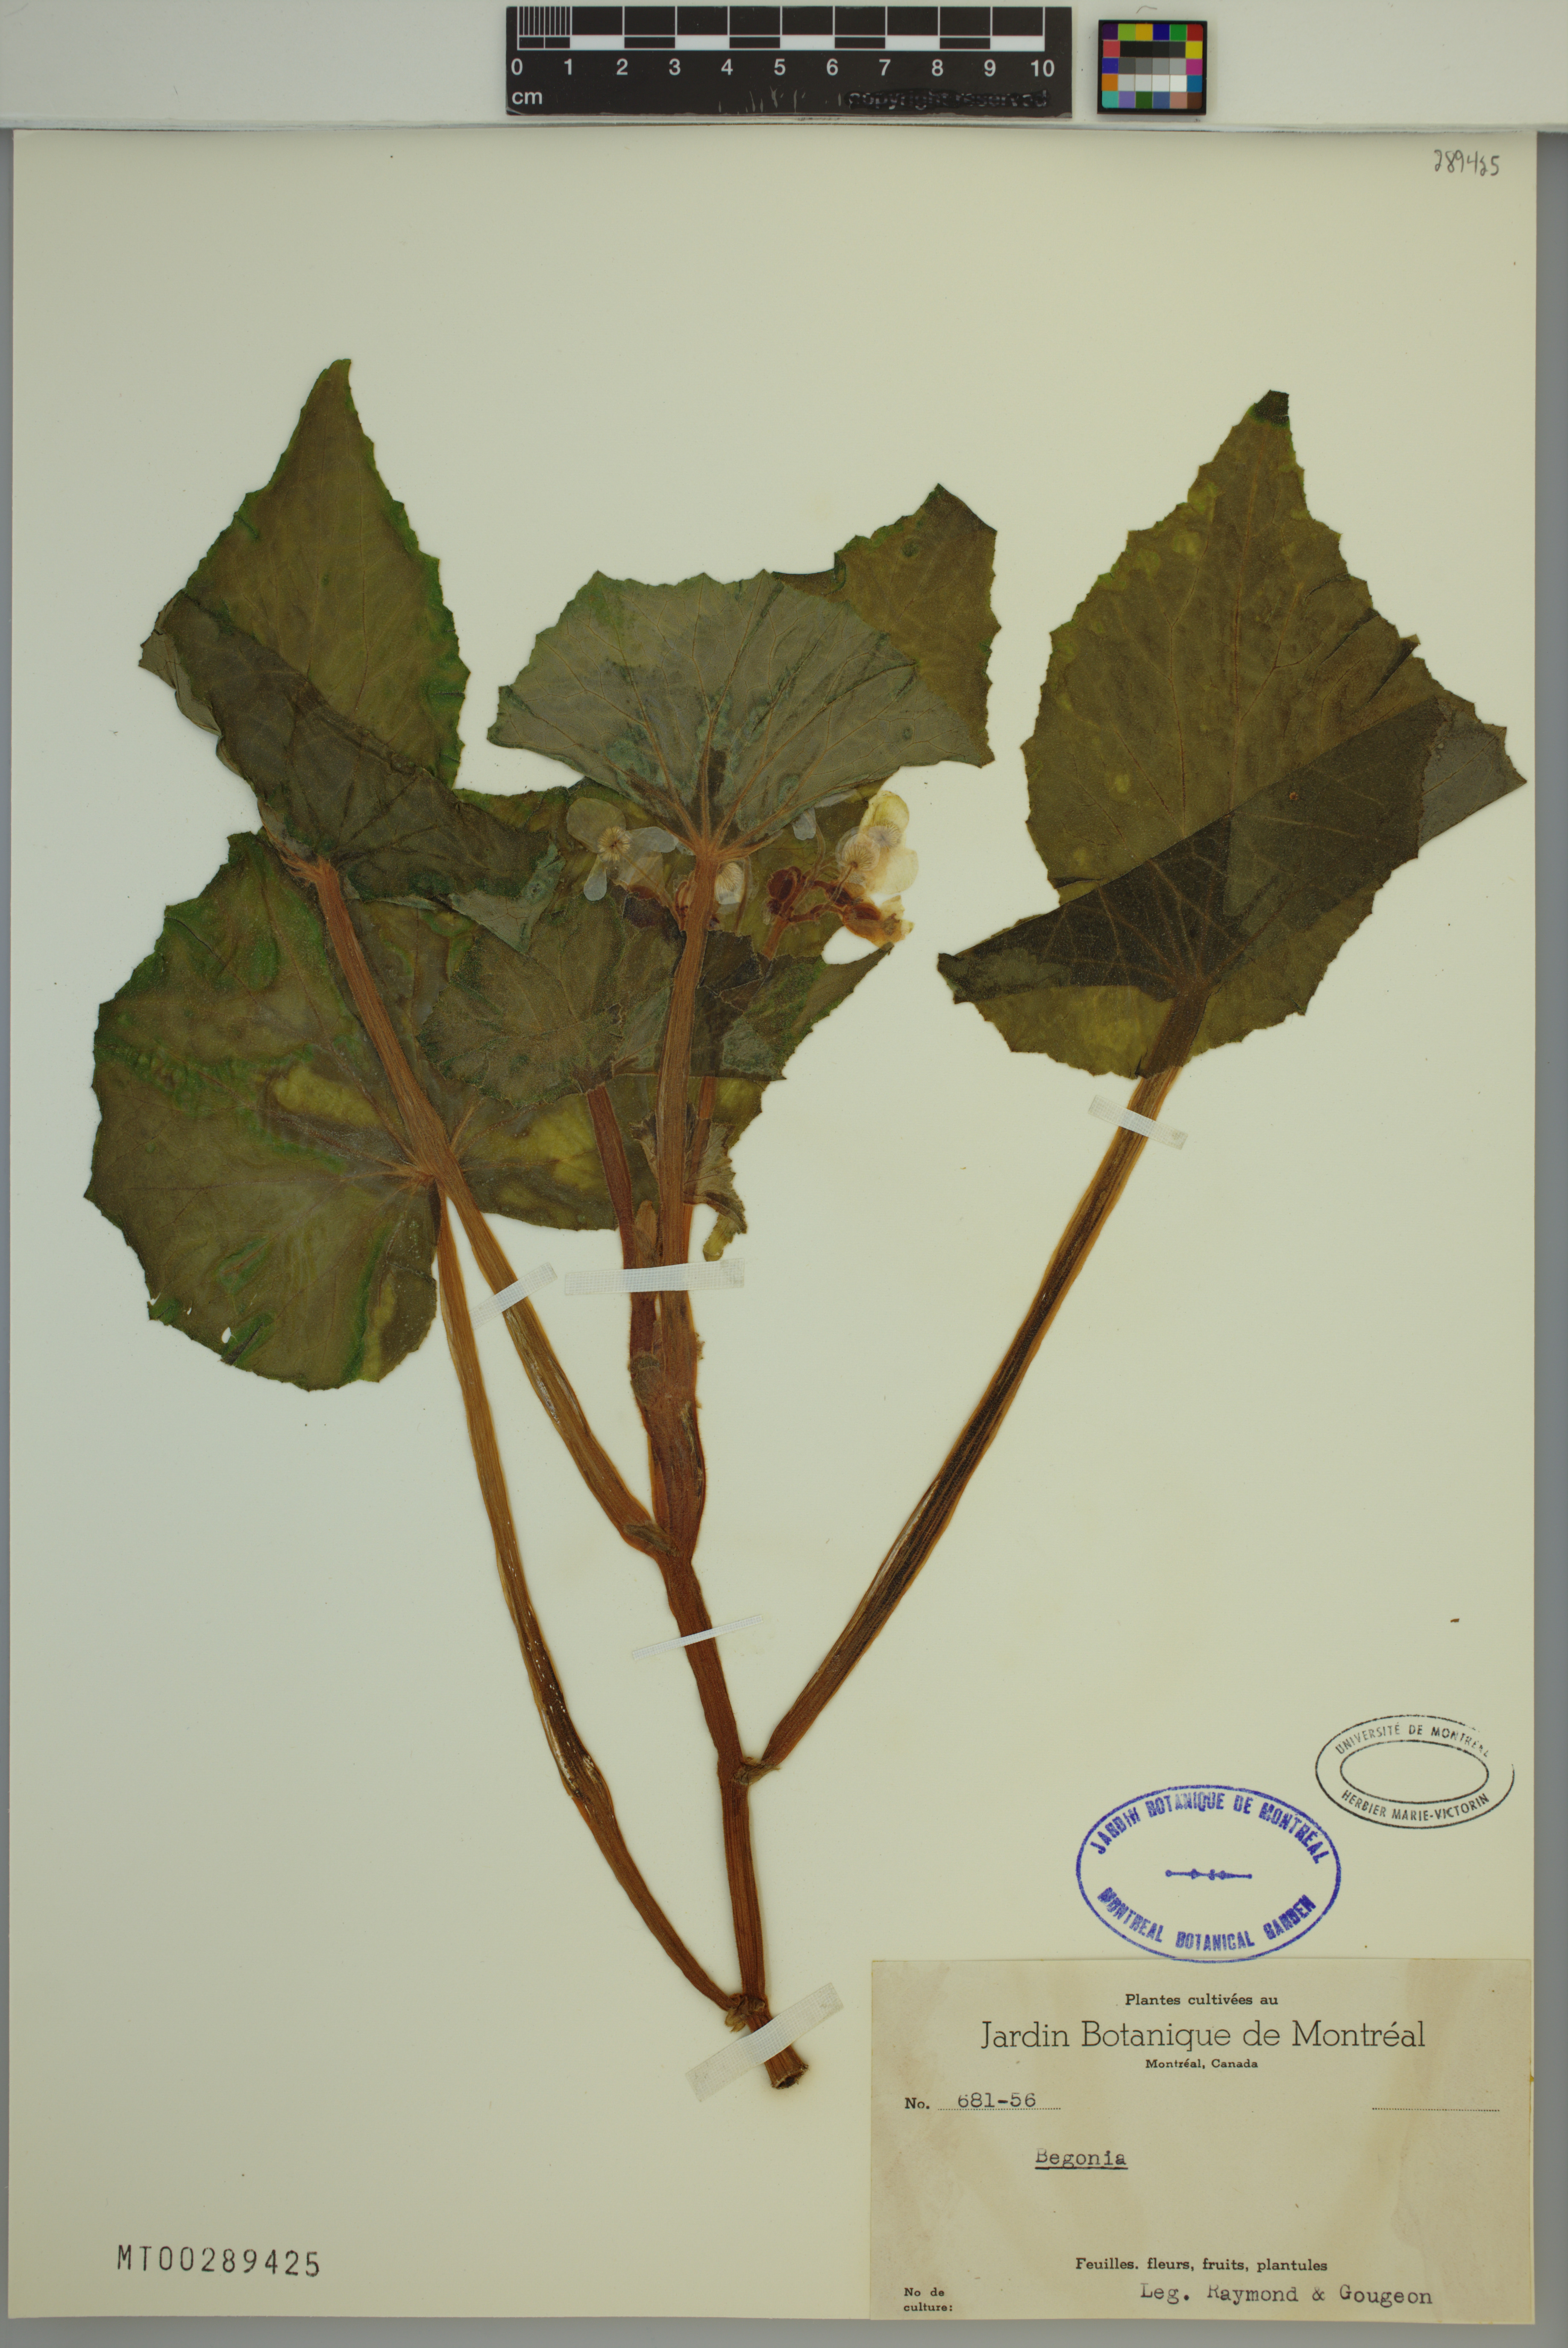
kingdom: Plantae
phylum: Tracheophyta
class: Magnoliopsida
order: Cucurbitales
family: Begoniaceae
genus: Begonia
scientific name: Begonia
